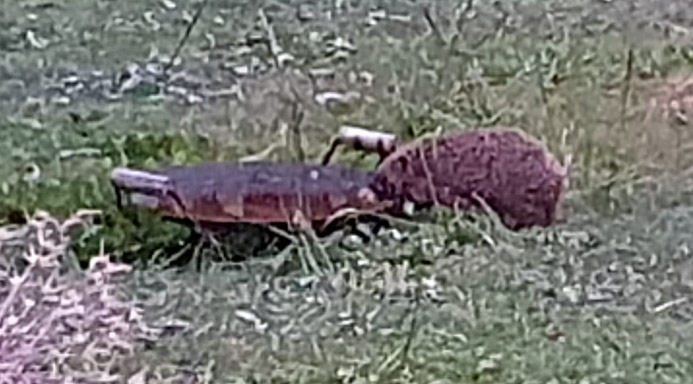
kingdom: Animalia
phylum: Chordata
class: Mammalia
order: Erinaceomorpha
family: Erinaceidae
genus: Erinaceus
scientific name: Erinaceus europaeus
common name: Pindsvin
